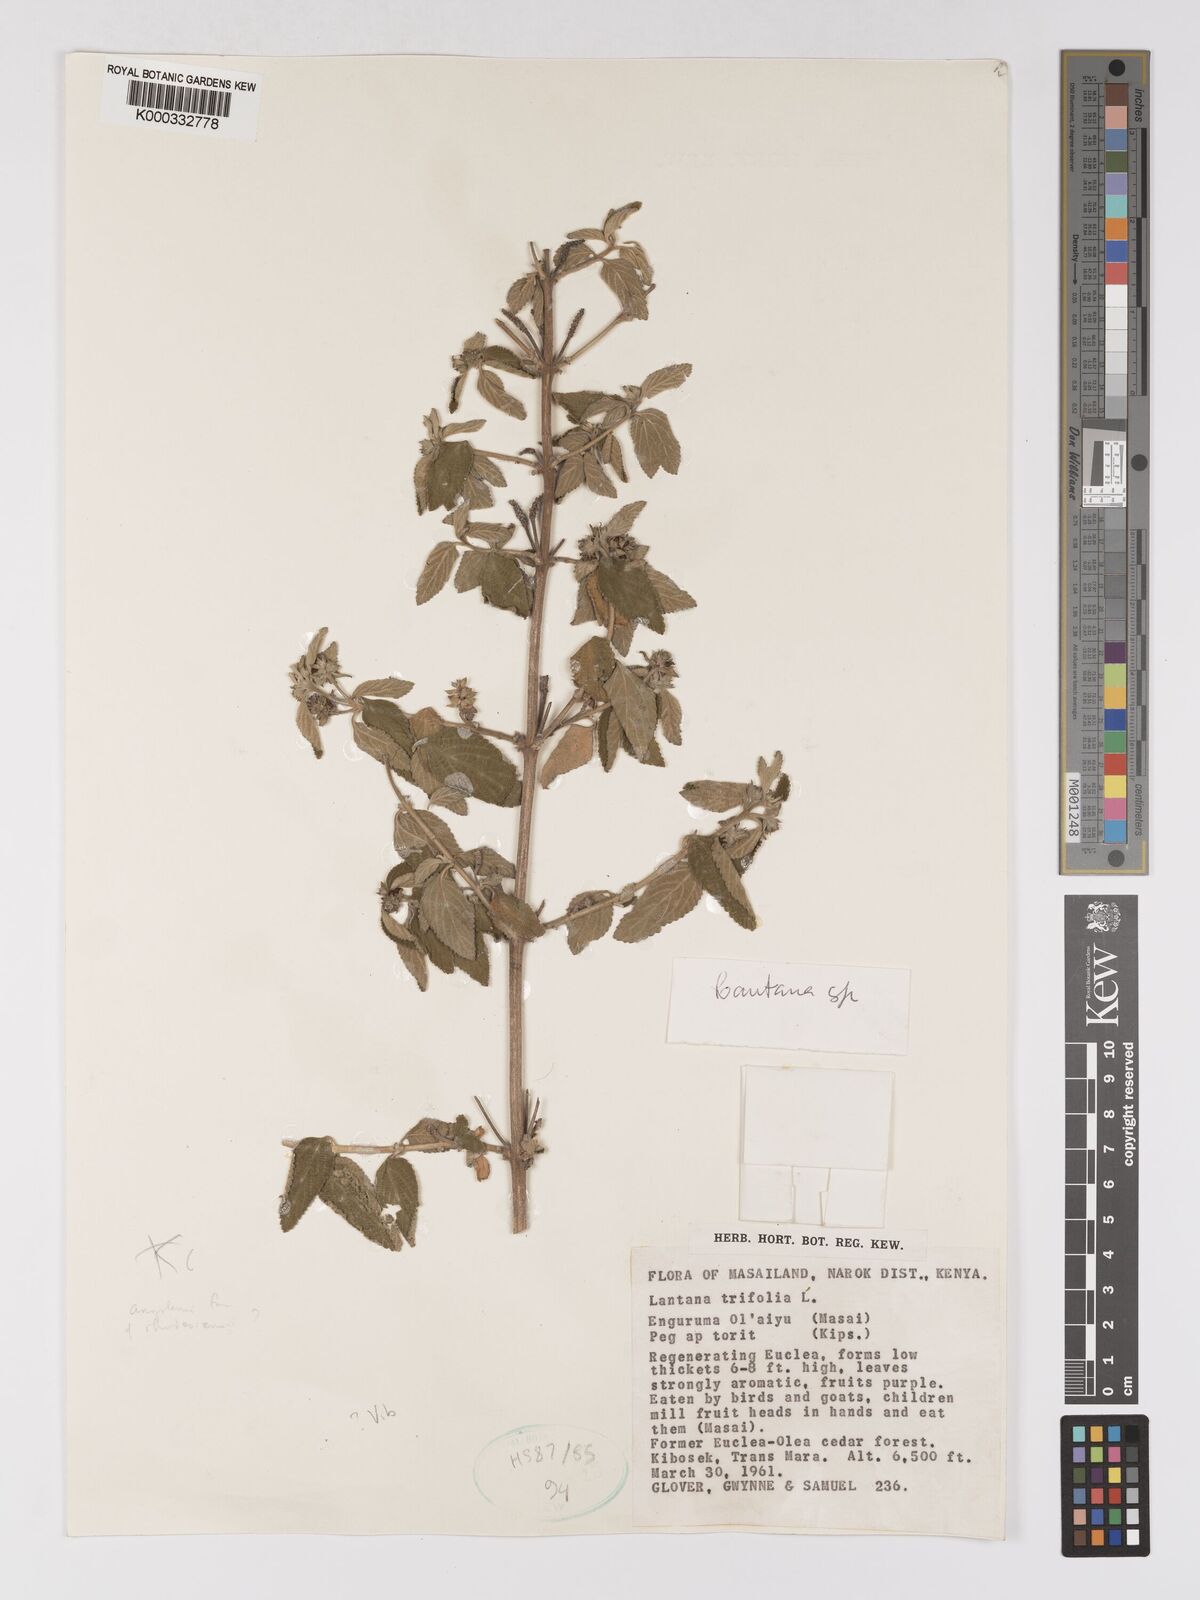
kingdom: Plantae
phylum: Tracheophyta
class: Magnoliopsida
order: Lamiales
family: Verbenaceae
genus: Lantana
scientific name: Lantana ukambensis
